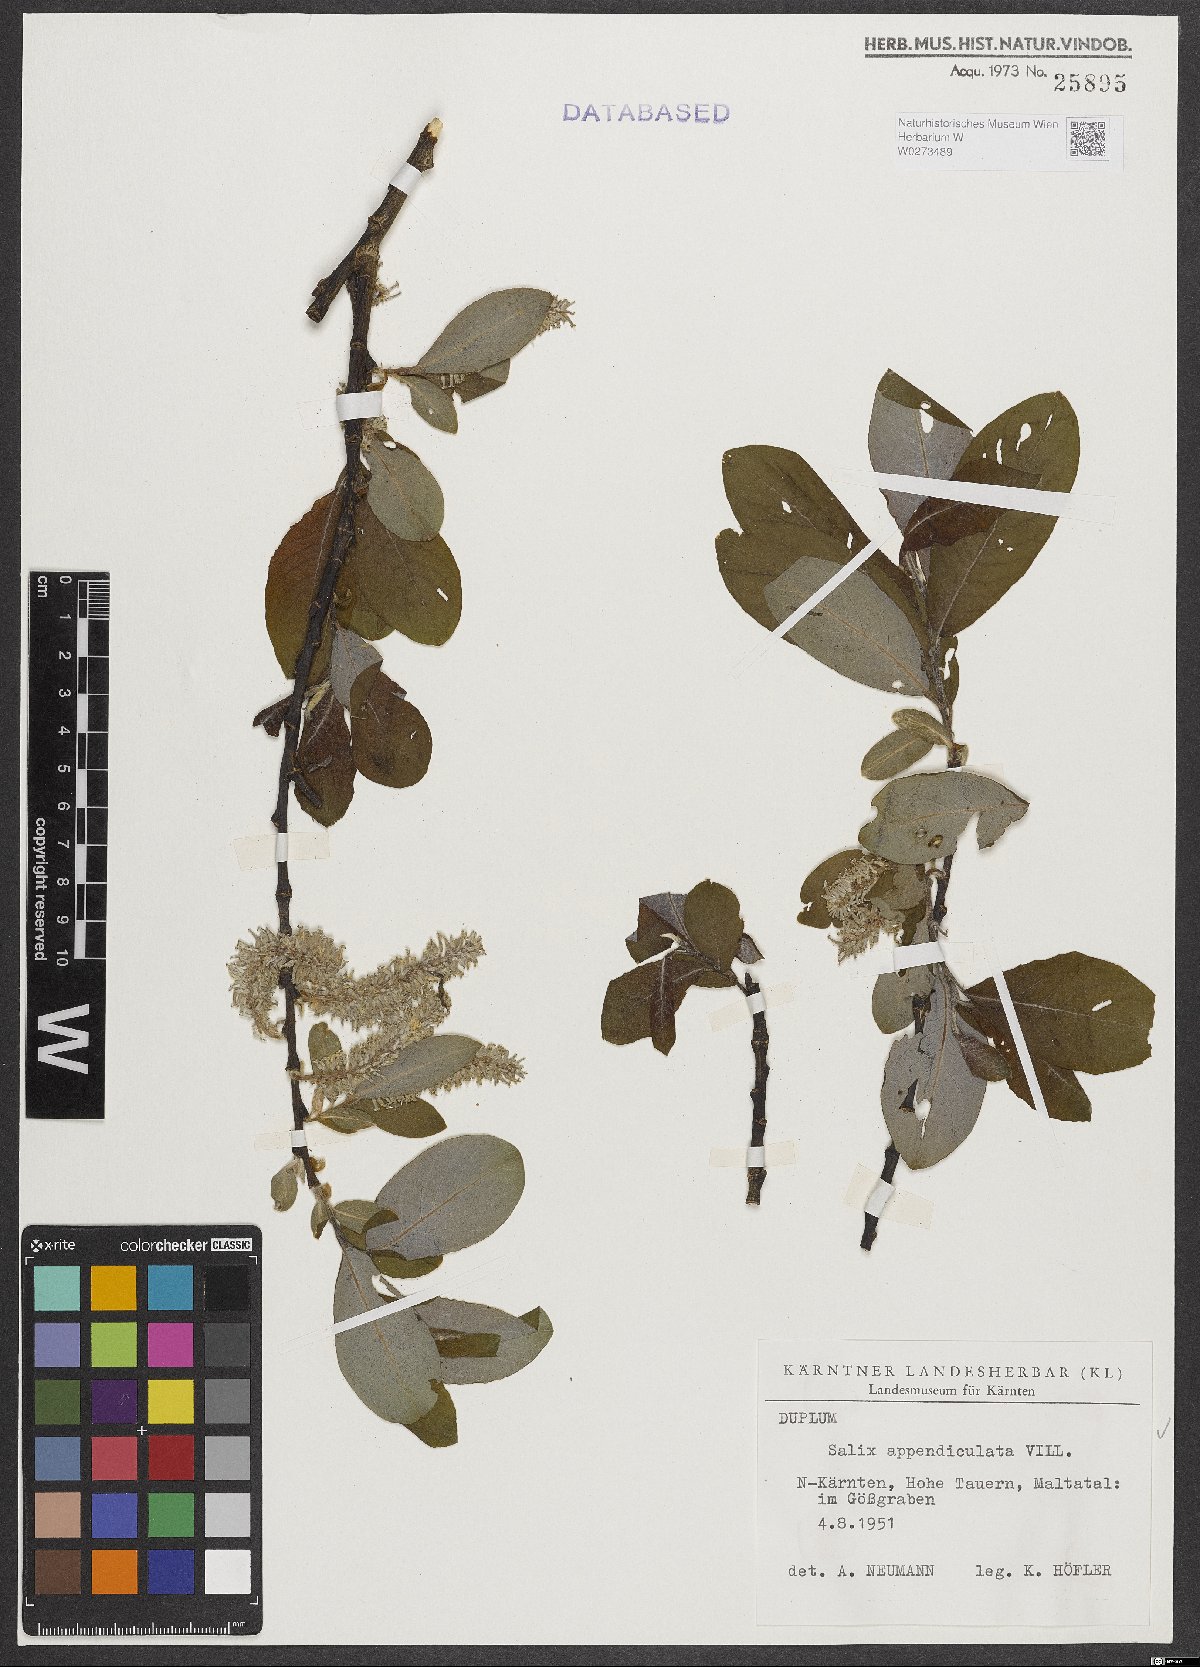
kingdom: Plantae
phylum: Tracheophyta
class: Magnoliopsida
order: Malpighiales
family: Salicaceae
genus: Salix
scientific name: Salix appendiculata
